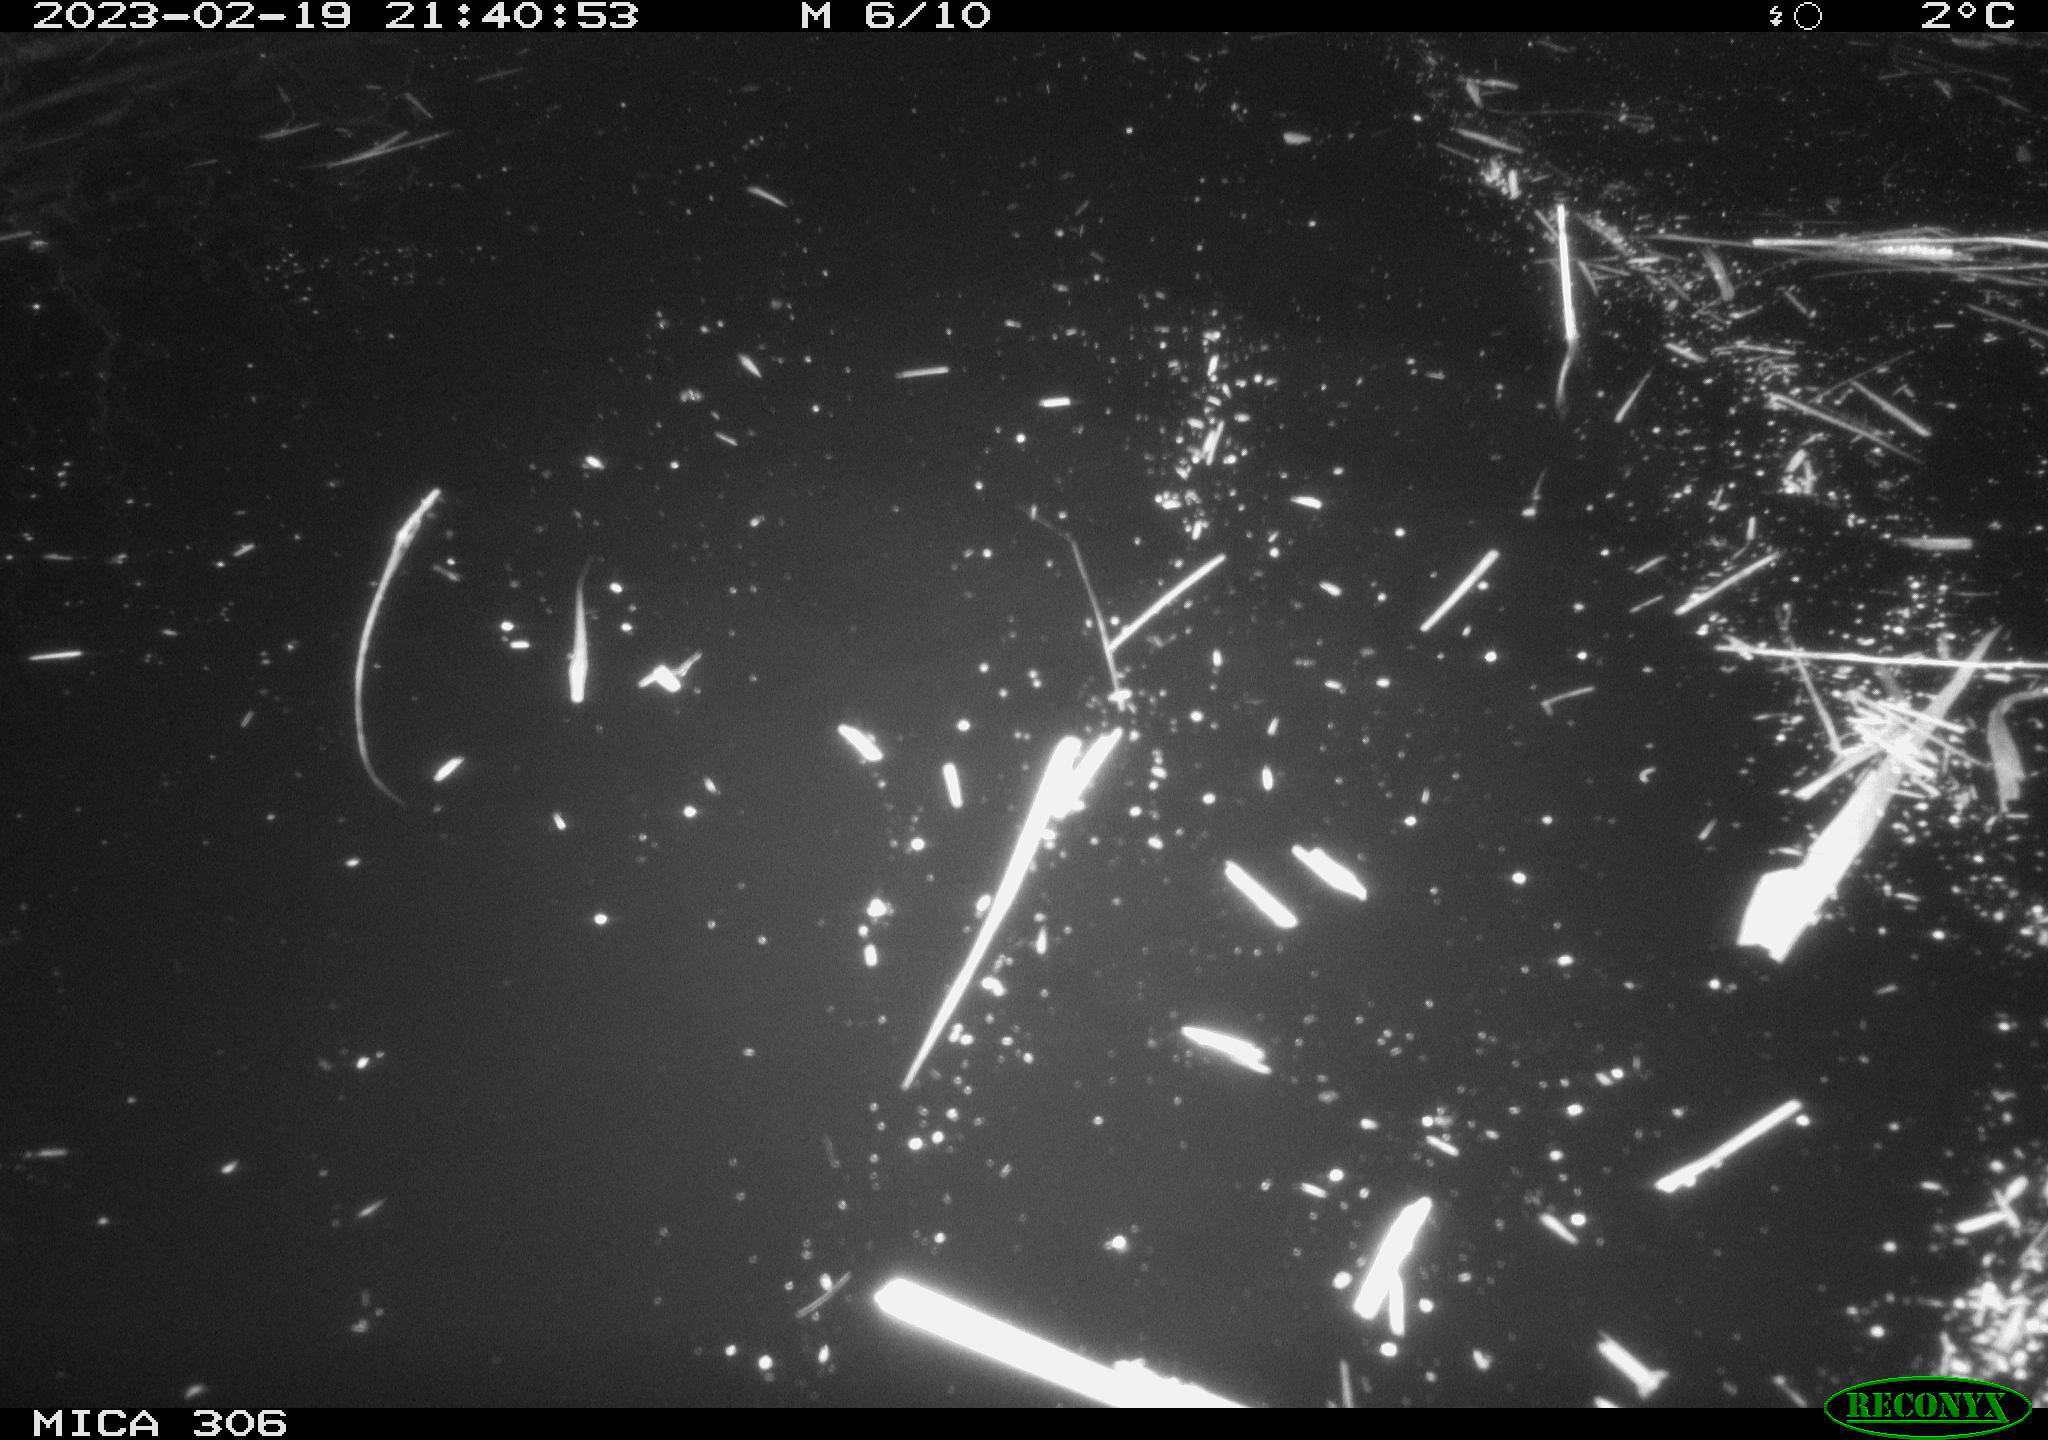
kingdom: Animalia
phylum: Chordata
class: Mammalia
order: Rodentia
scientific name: Rodentia
